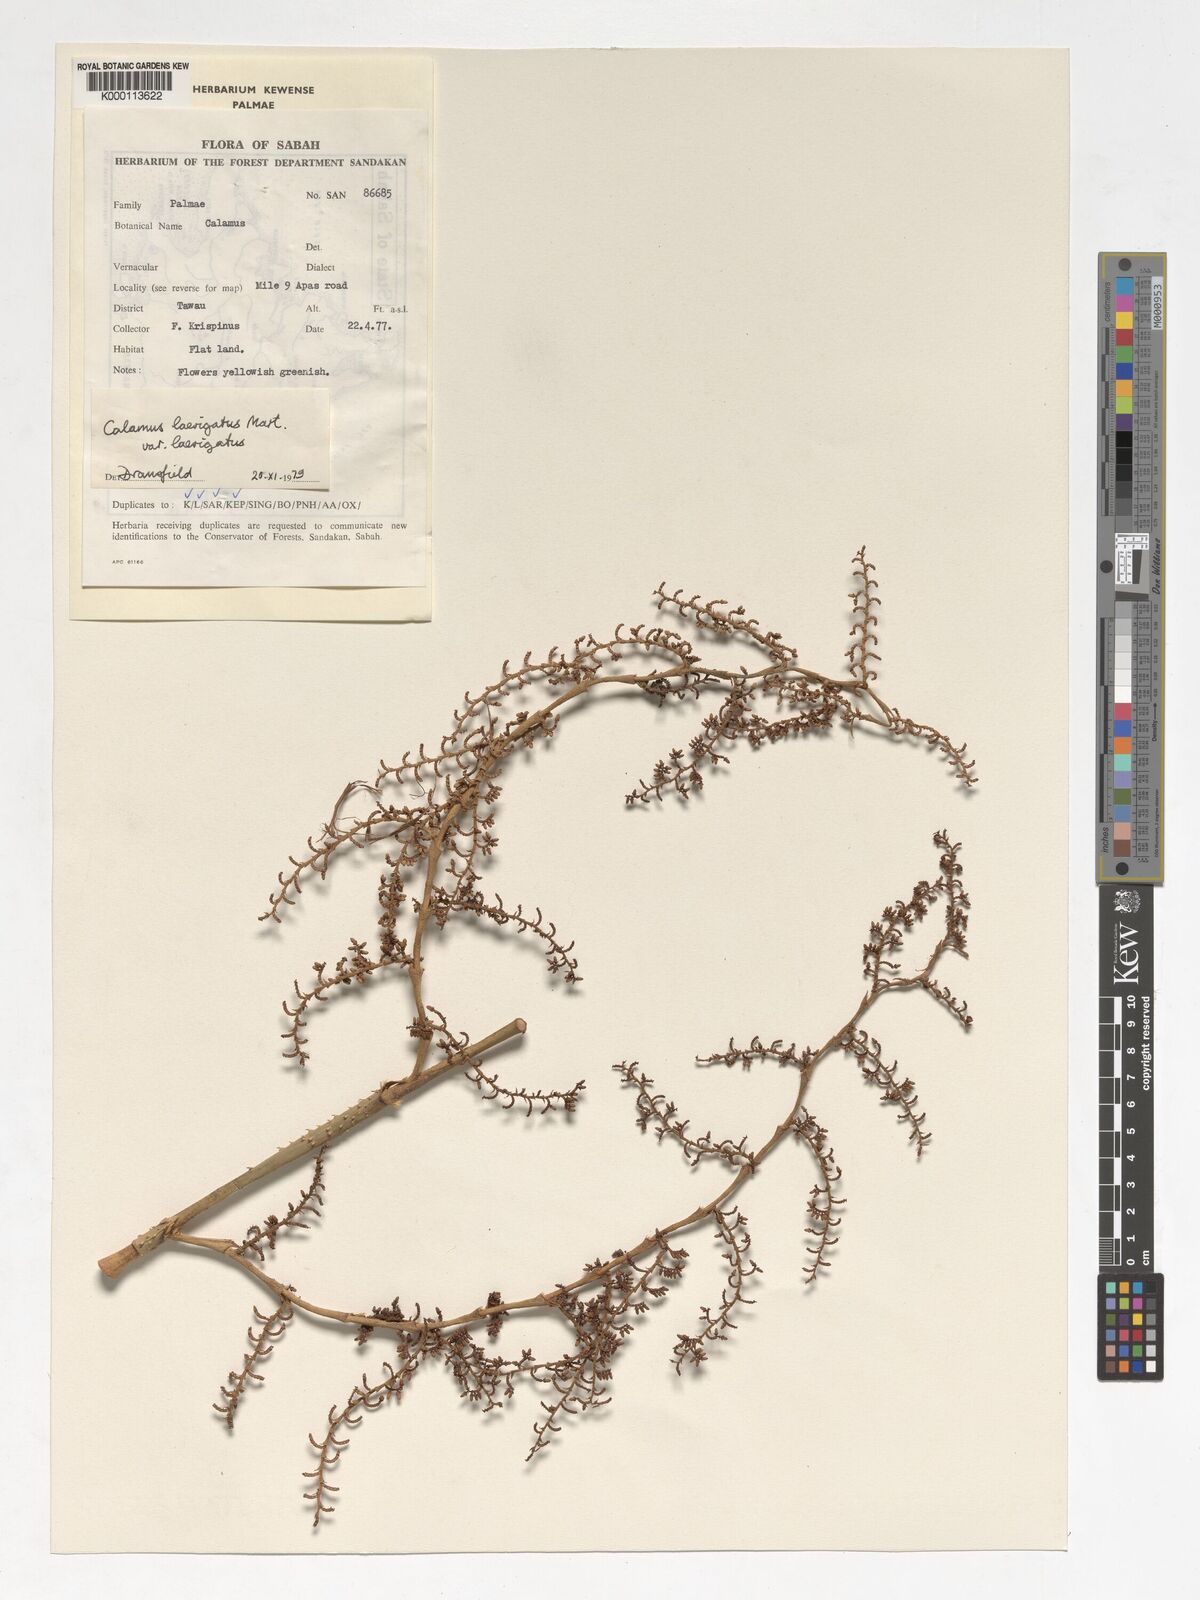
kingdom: Plantae
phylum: Tracheophyta
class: Liliopsida
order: Arecales
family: Arecaceae
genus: Calamus
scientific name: Calamus
